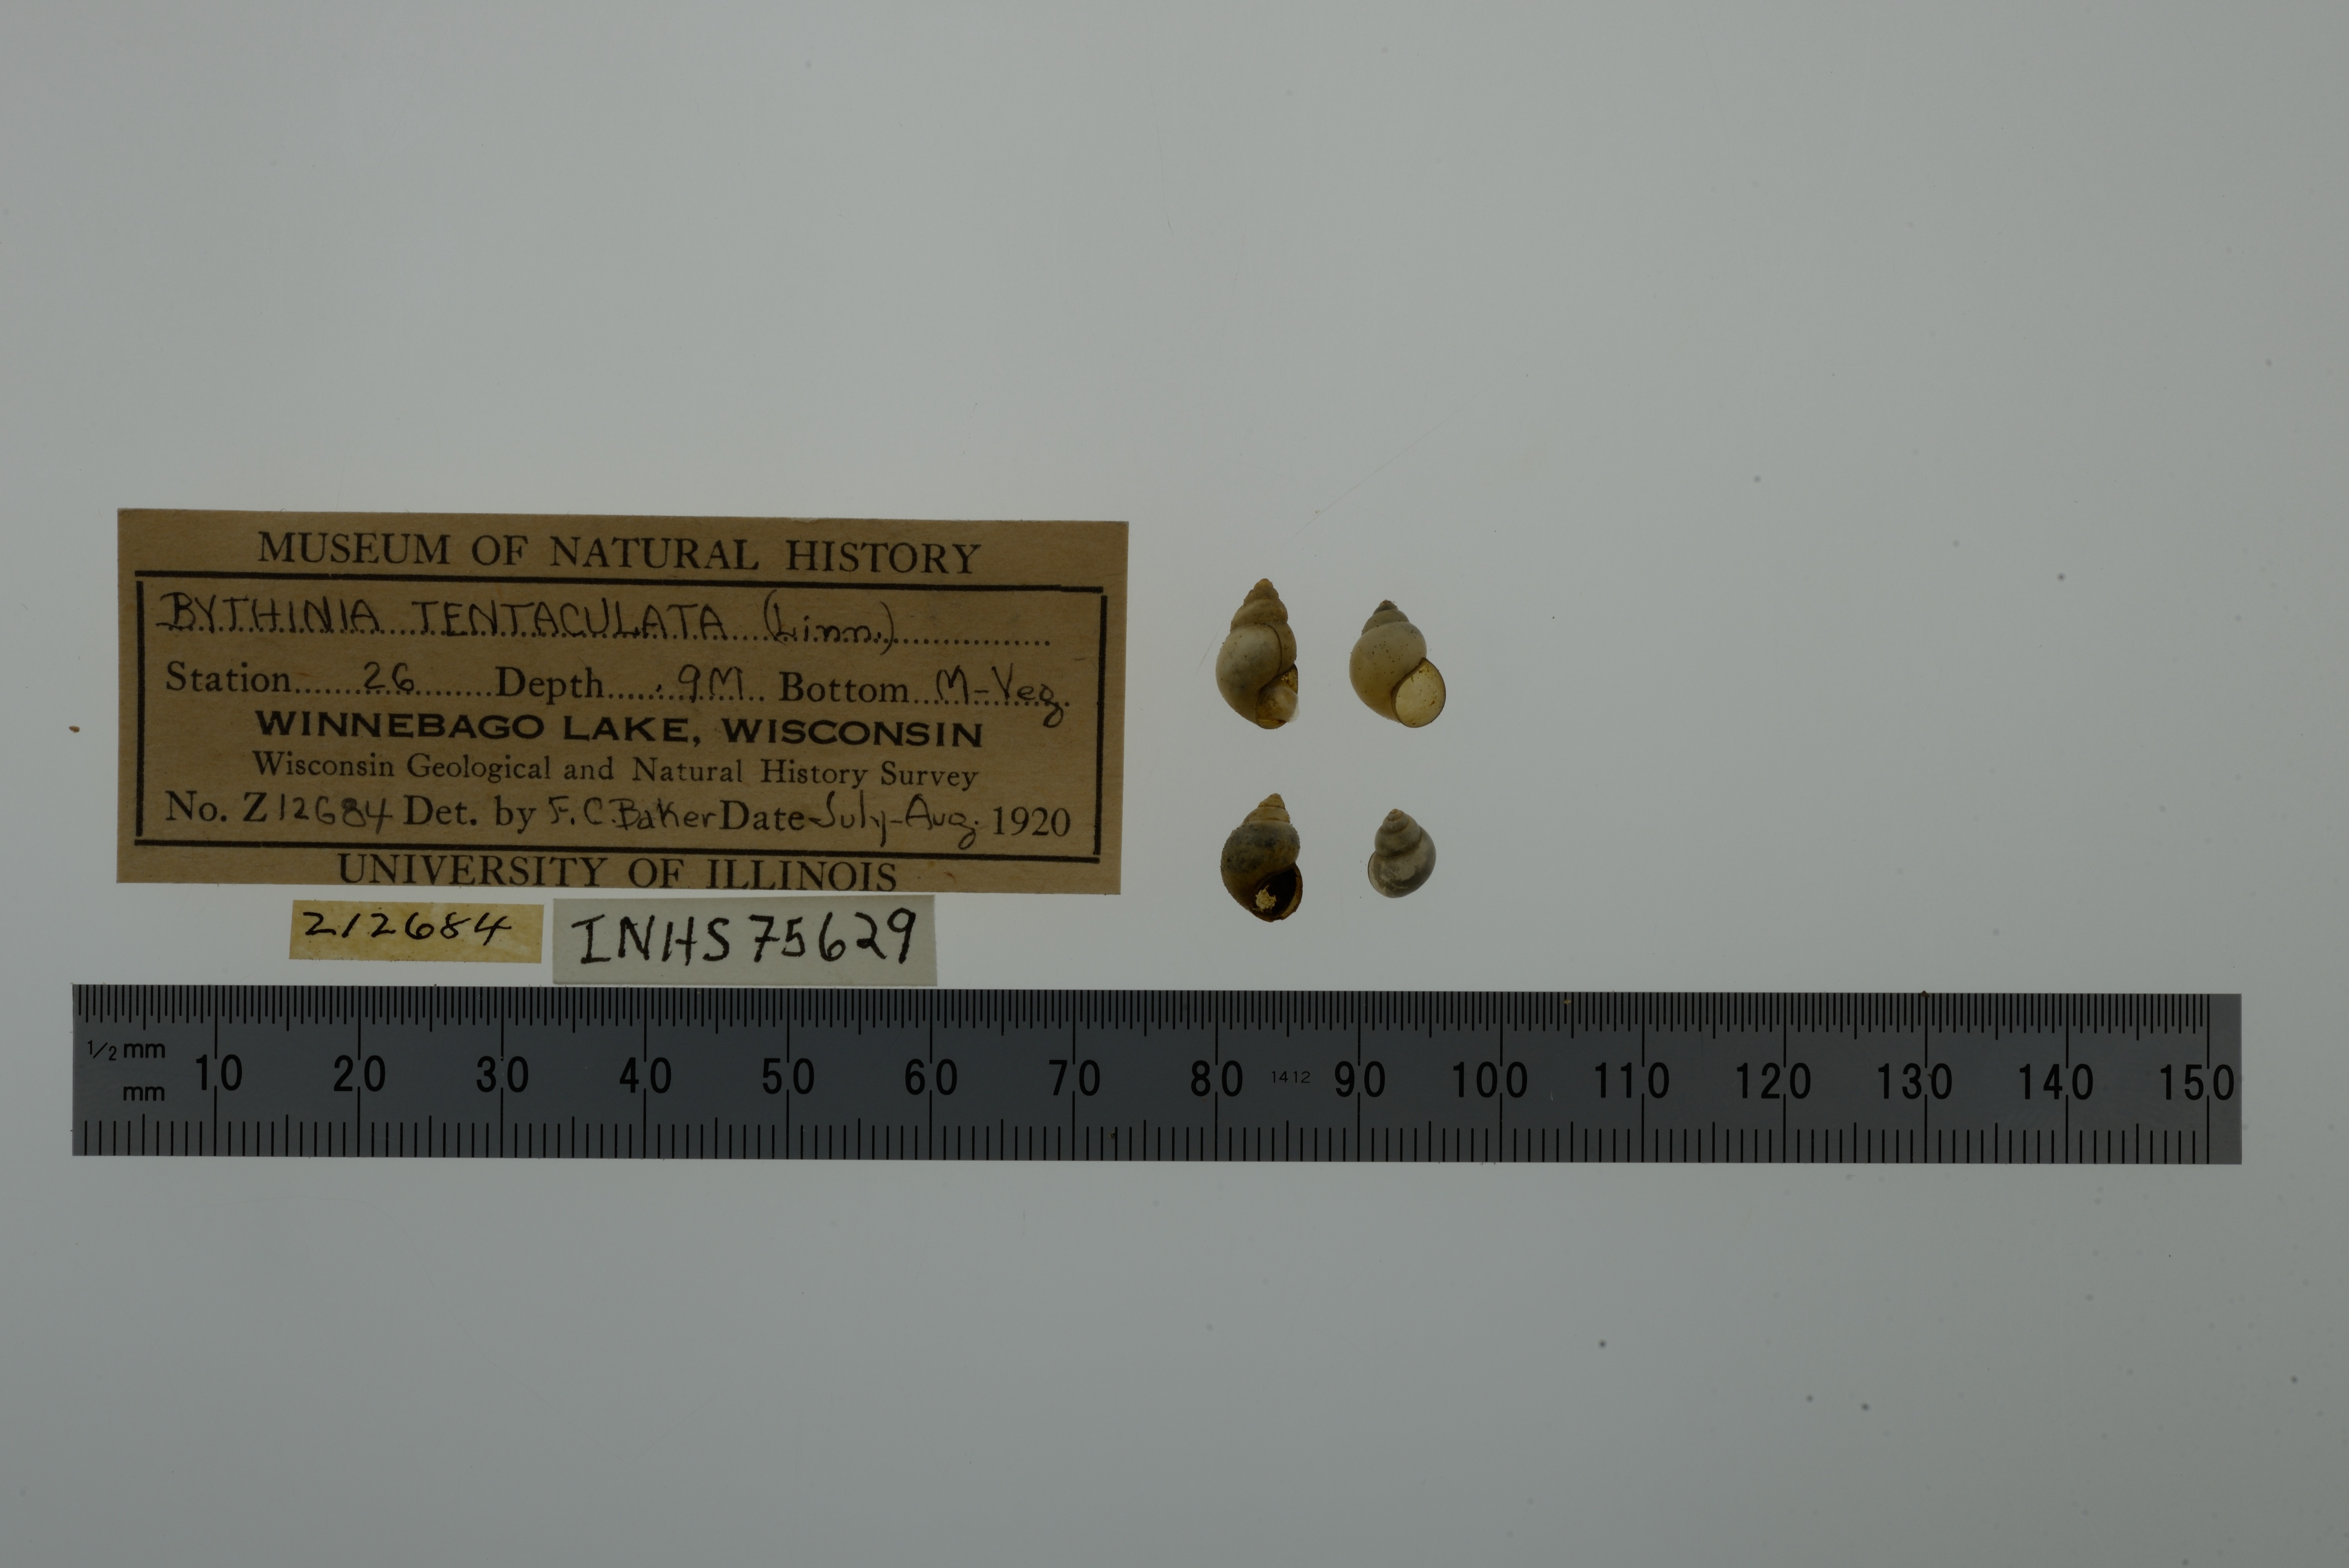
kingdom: Animalia
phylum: Mollusca
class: Gastropoda
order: Littorinimorpha
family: Bithyniidae
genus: Bithynia
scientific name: Bithynia tentaculata
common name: Common bithynia
